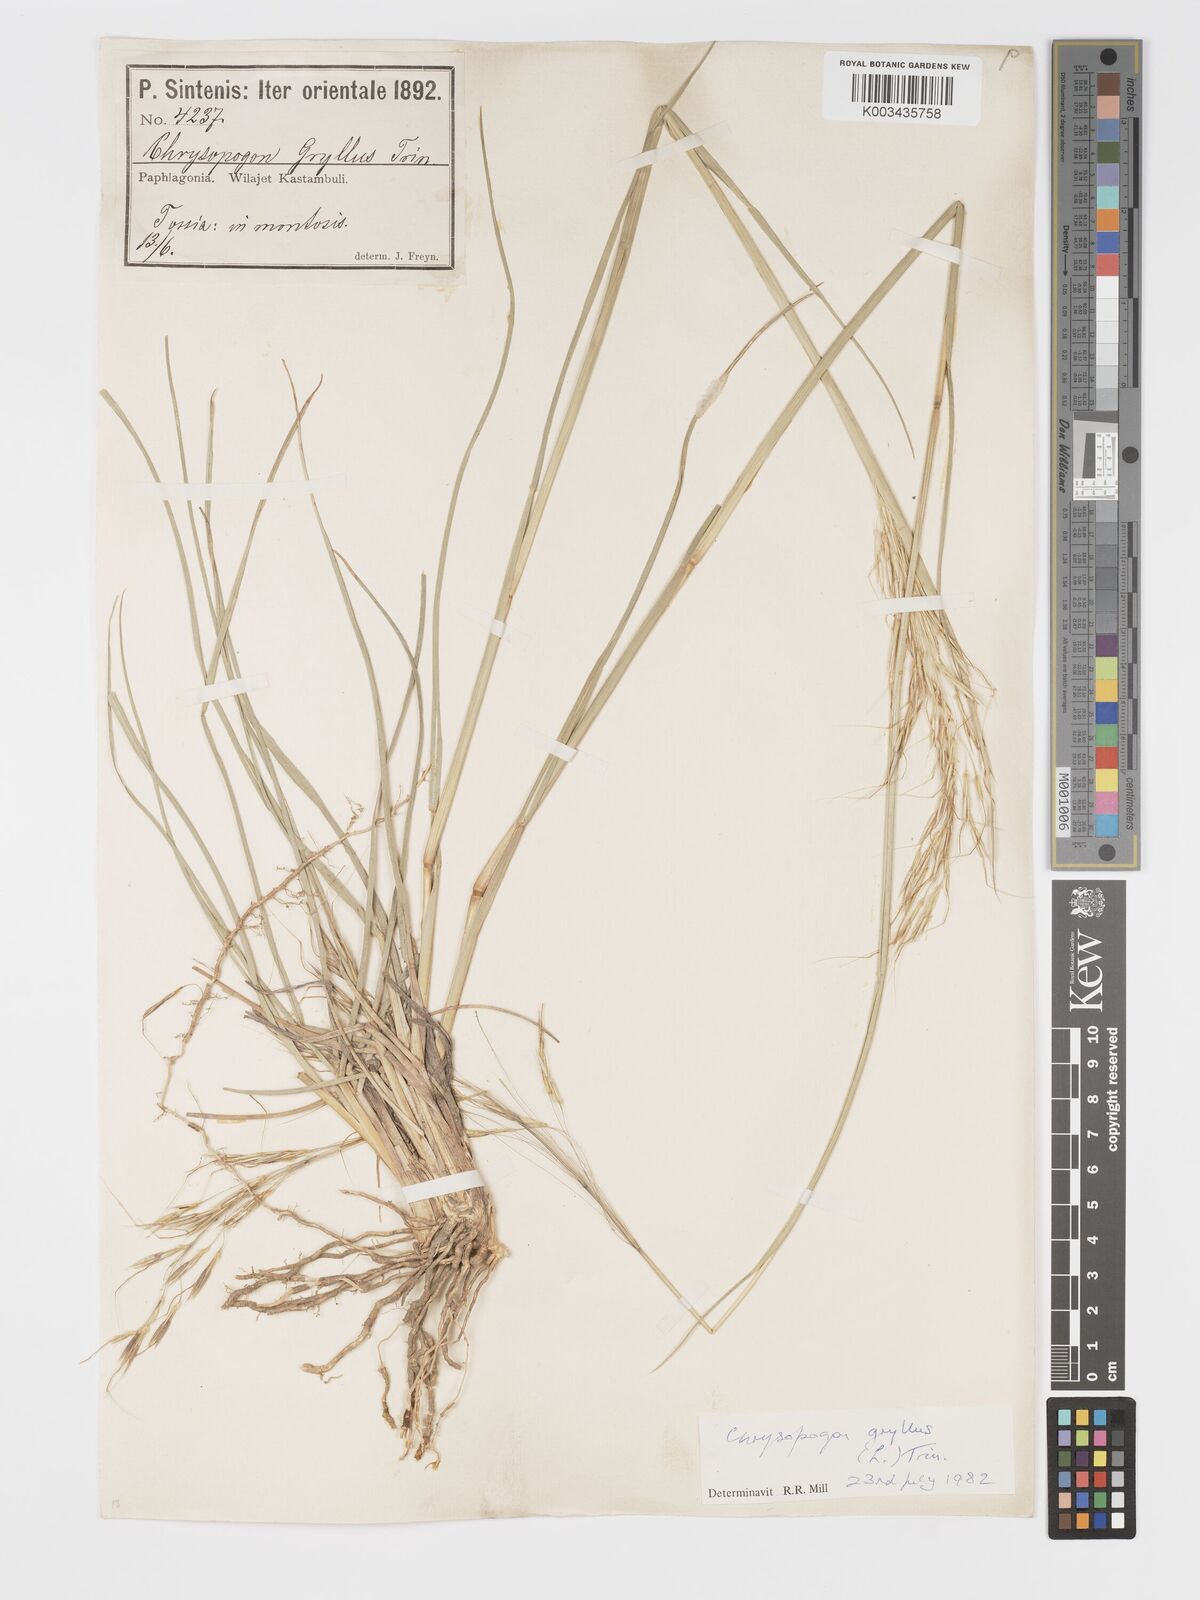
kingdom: Plantae
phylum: Tracheophyta
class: Liliopsida
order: Poales
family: Poaceae
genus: Chrysopogon
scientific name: Chrysopogon gryllus
